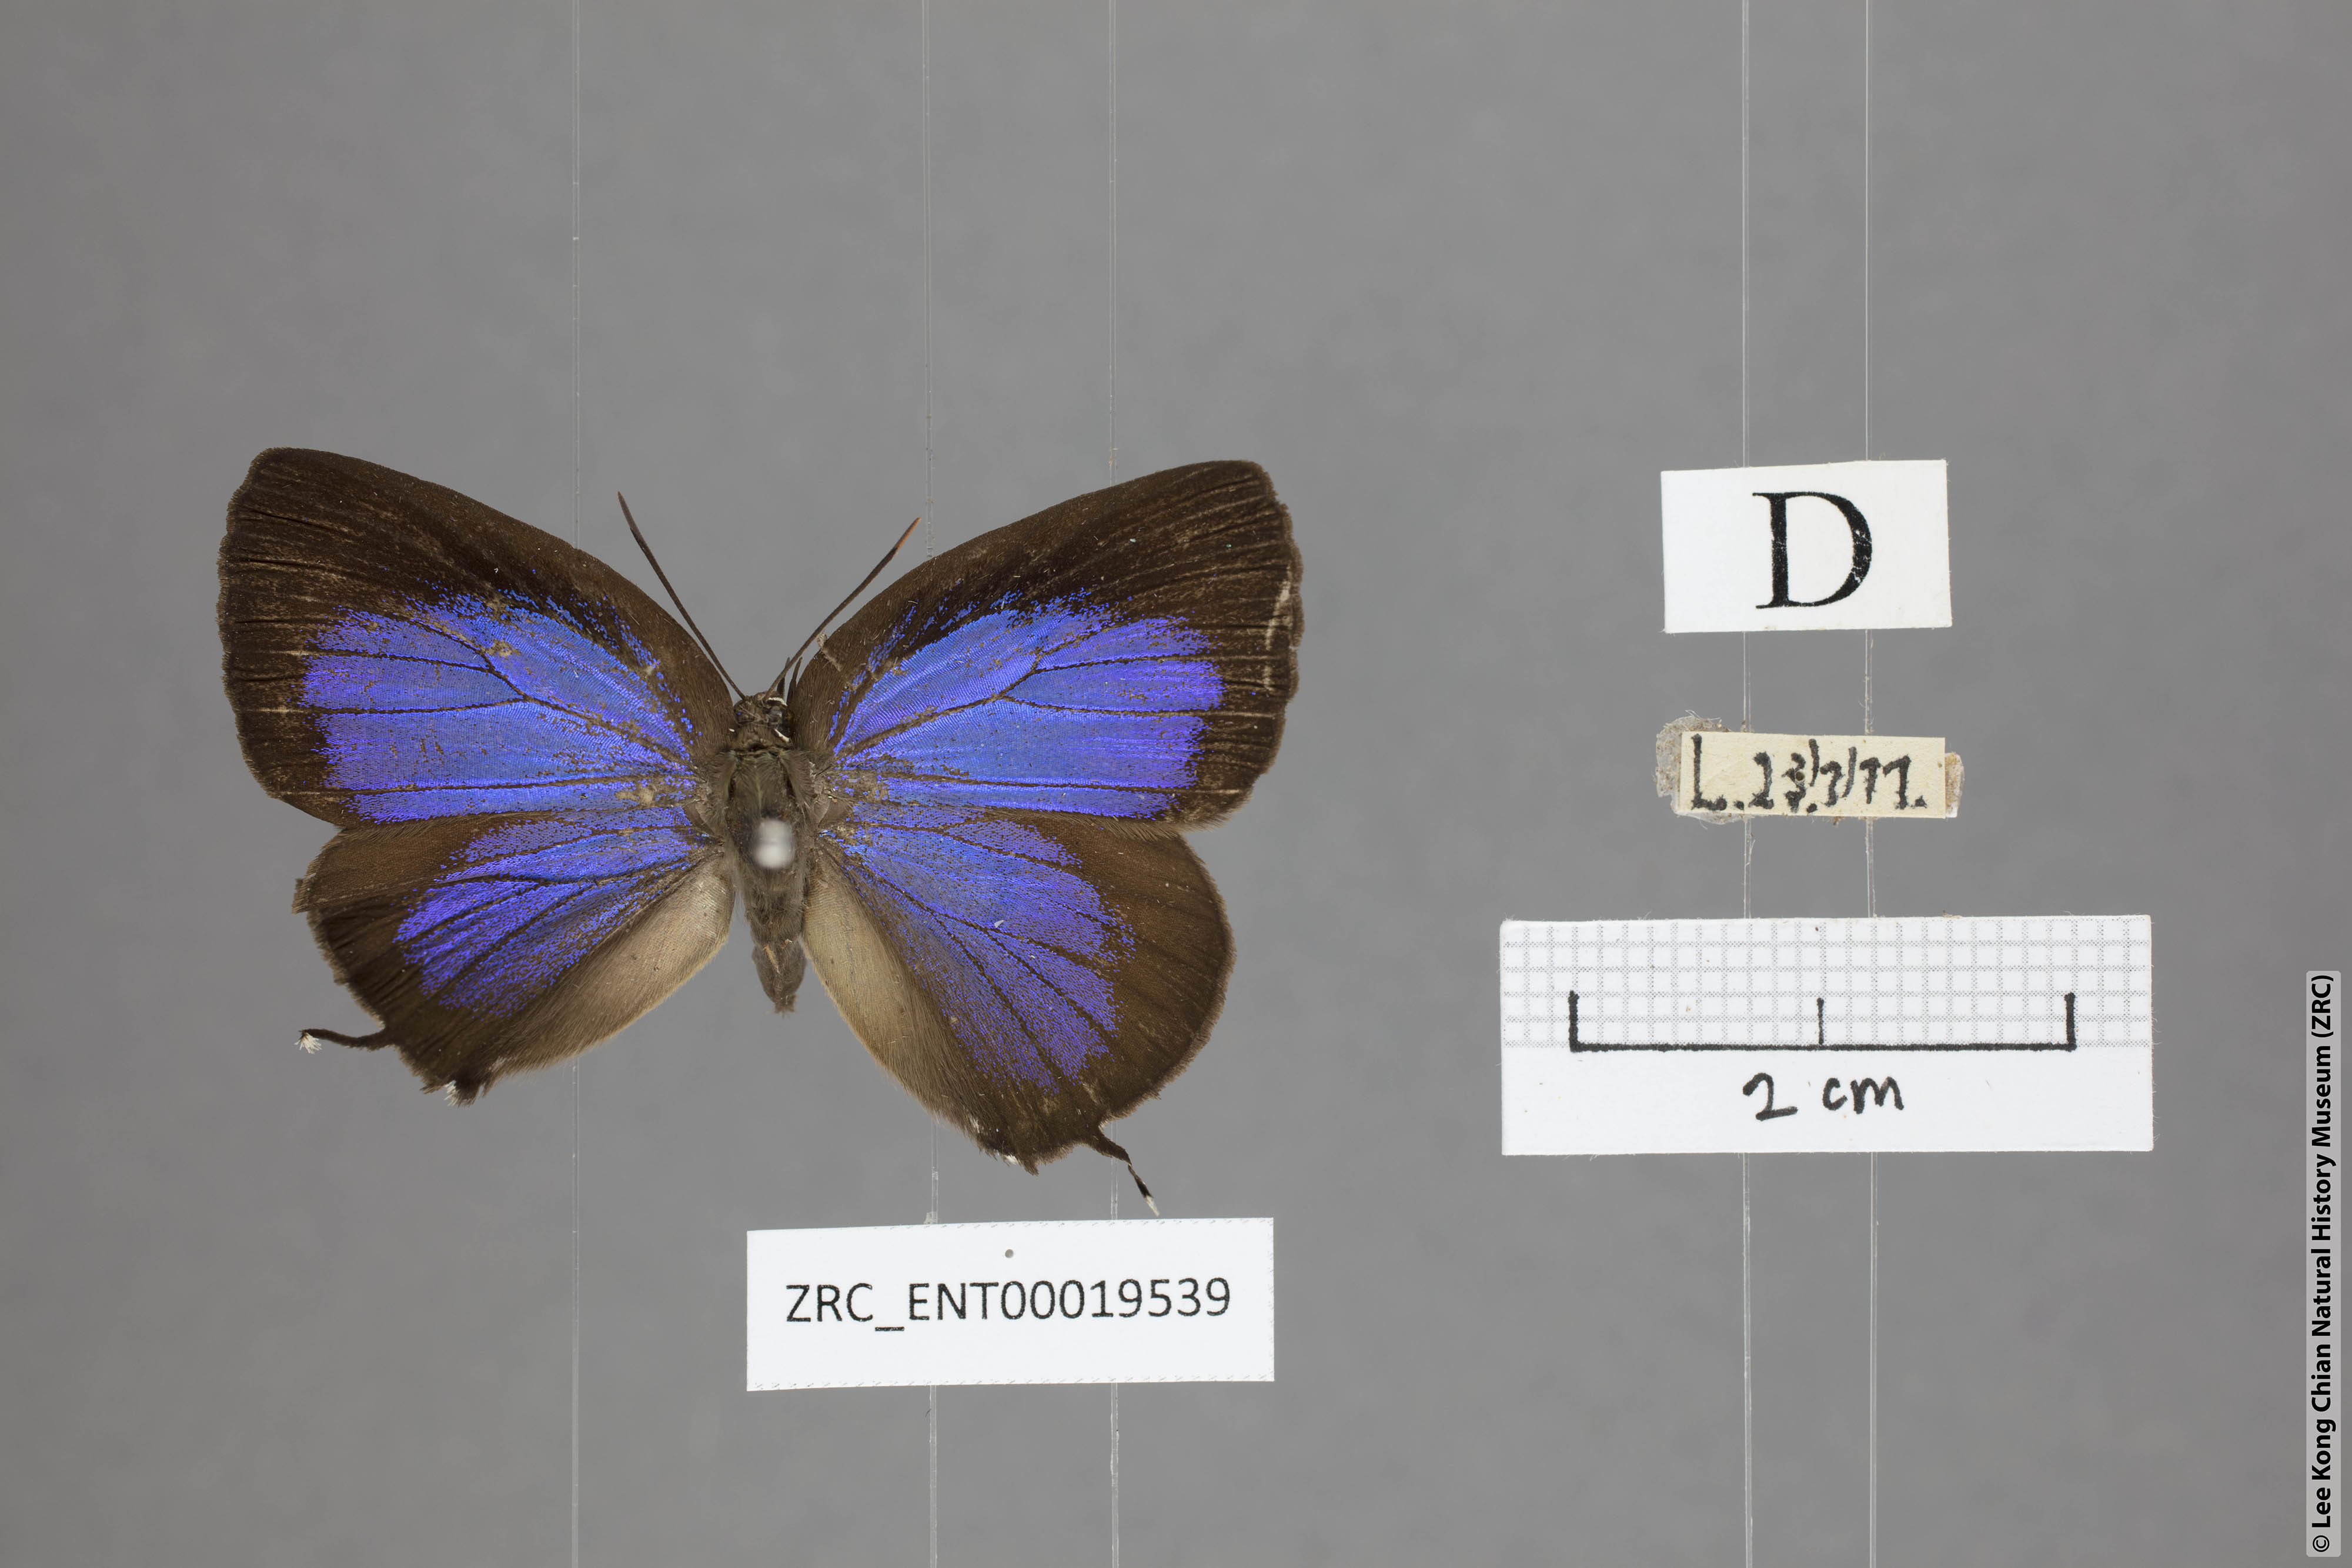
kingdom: Animalia
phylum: Arthropoda
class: Insecta
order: Lepidoptera
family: Lycaenidae
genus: Arhopala
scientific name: Arhopala horsfieldi
